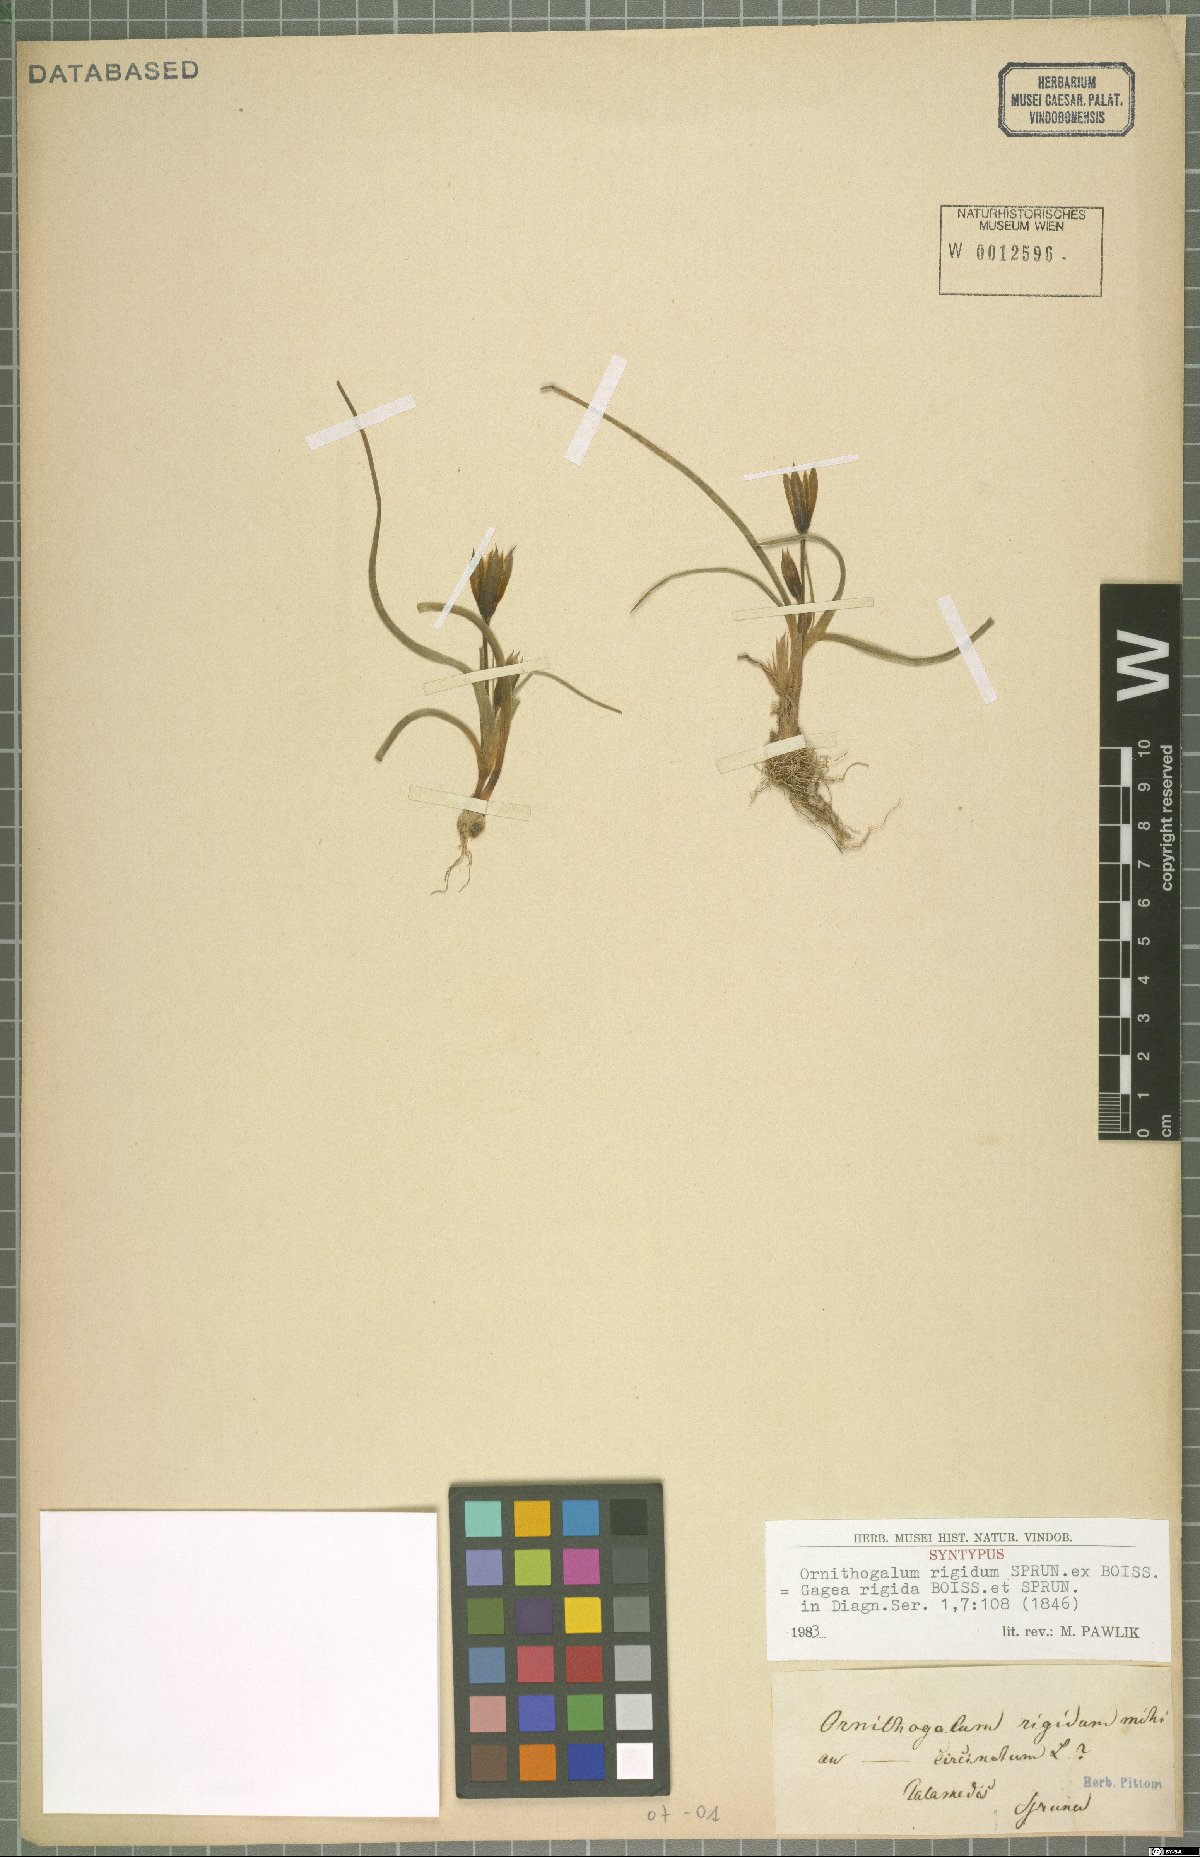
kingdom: Plantae
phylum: Tracheophyta
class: Liliopsida
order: Liliales
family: Liliaceae
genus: Gagea
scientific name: Gagea rigida
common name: Stiff gagea
